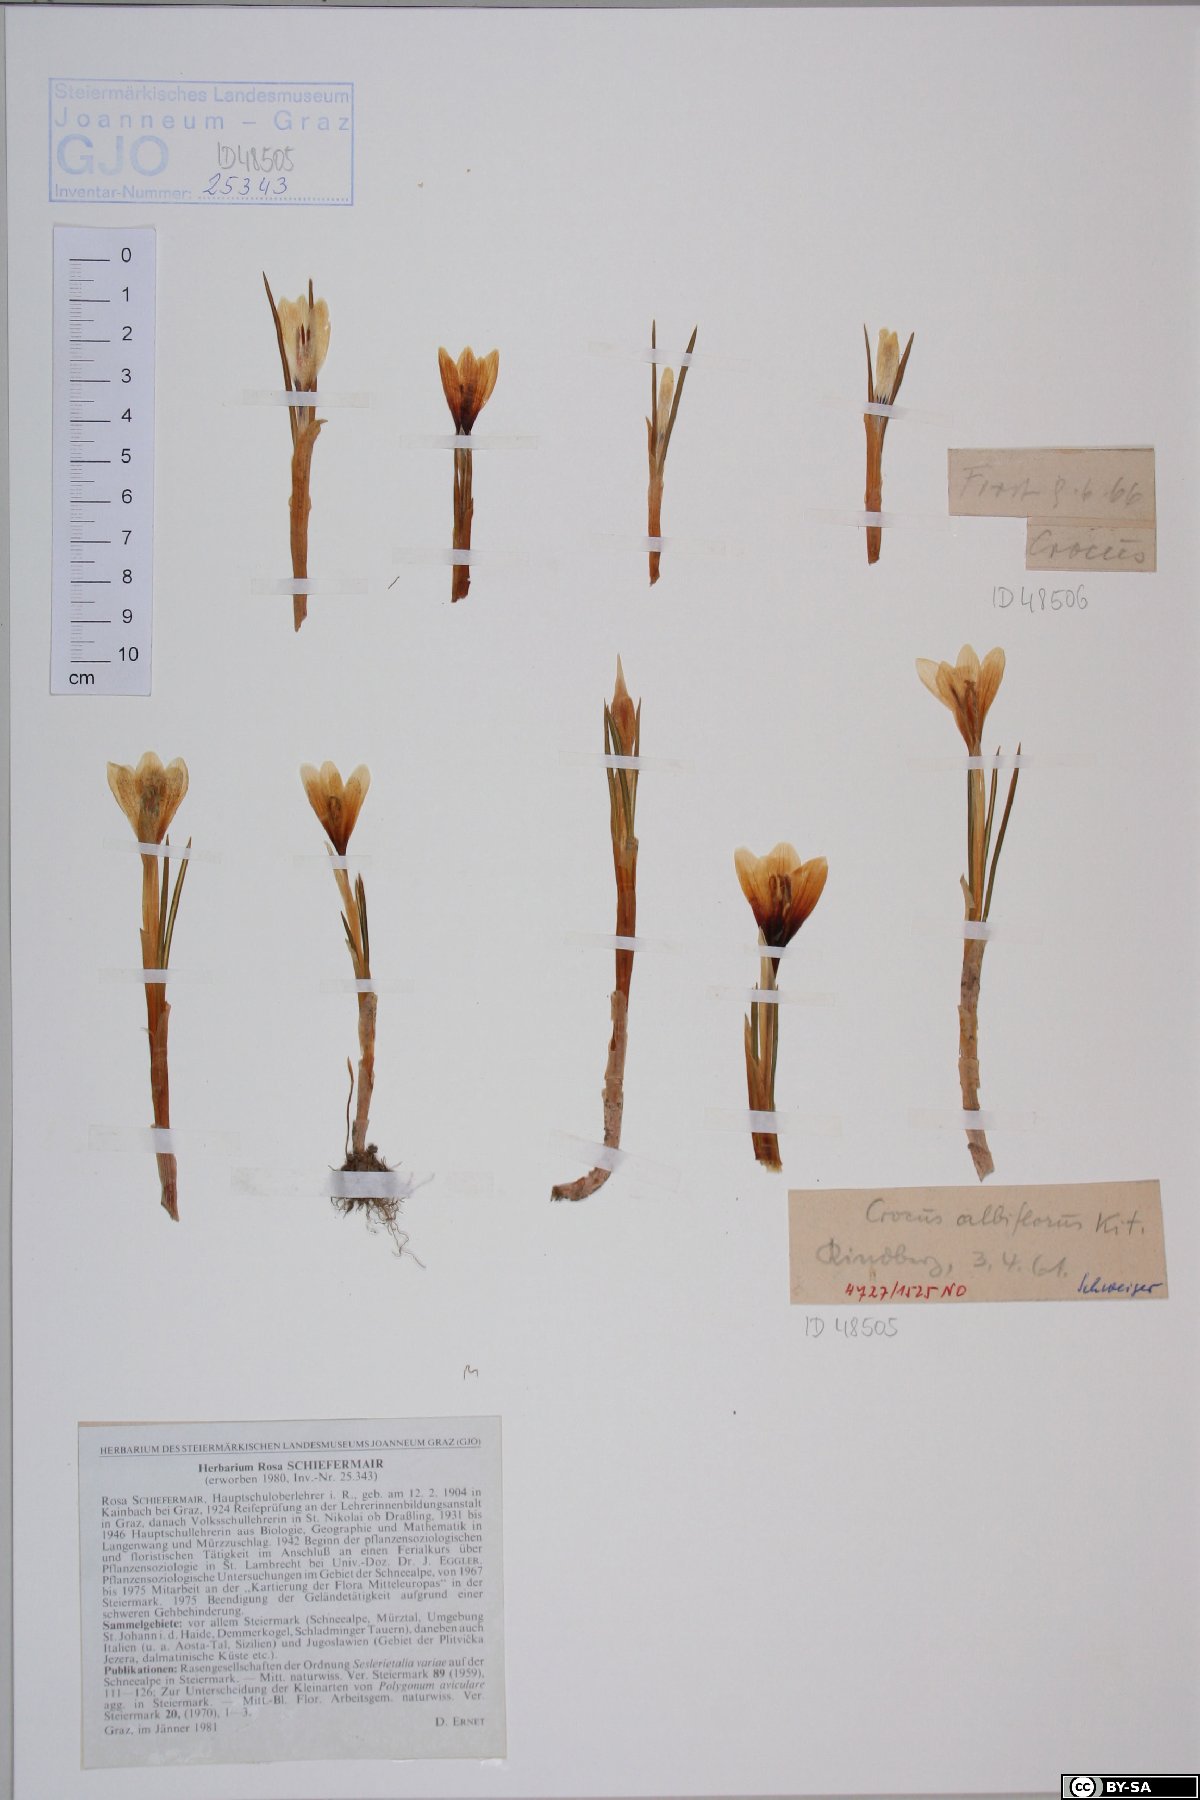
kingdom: Plantae
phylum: Tracheophyta
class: Liliopsida
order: Asparagales
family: Iridaceae
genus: Crocus
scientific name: Crocus vernus
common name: Spring crocus
